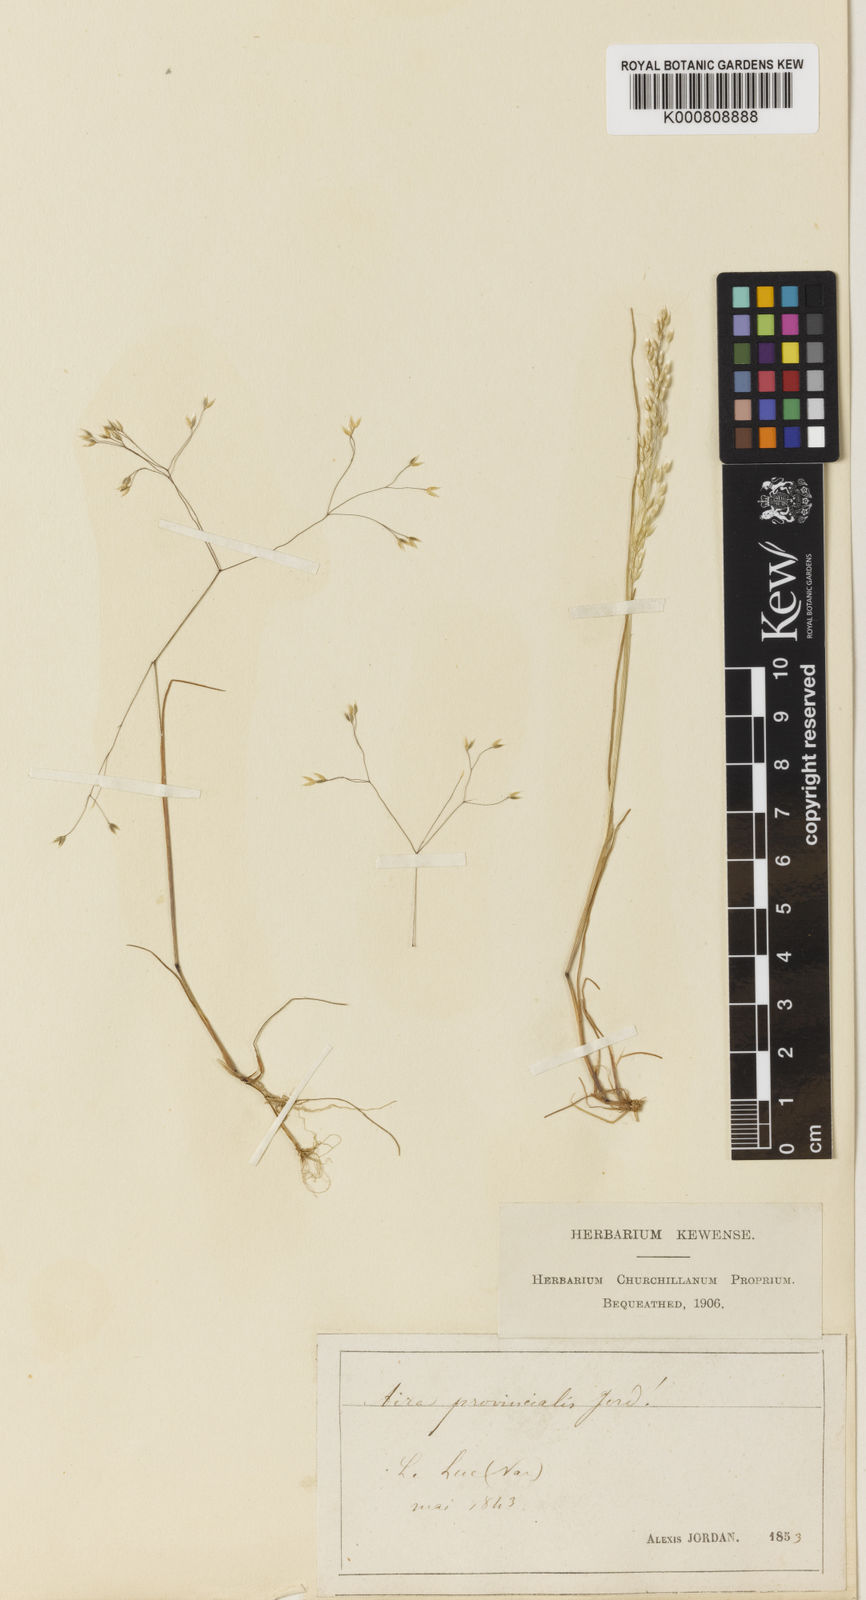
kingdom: Plantae
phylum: Tracheophyta
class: Liliopsida
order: Poales
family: Poaceae
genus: Aira
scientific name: Aira provincialis
